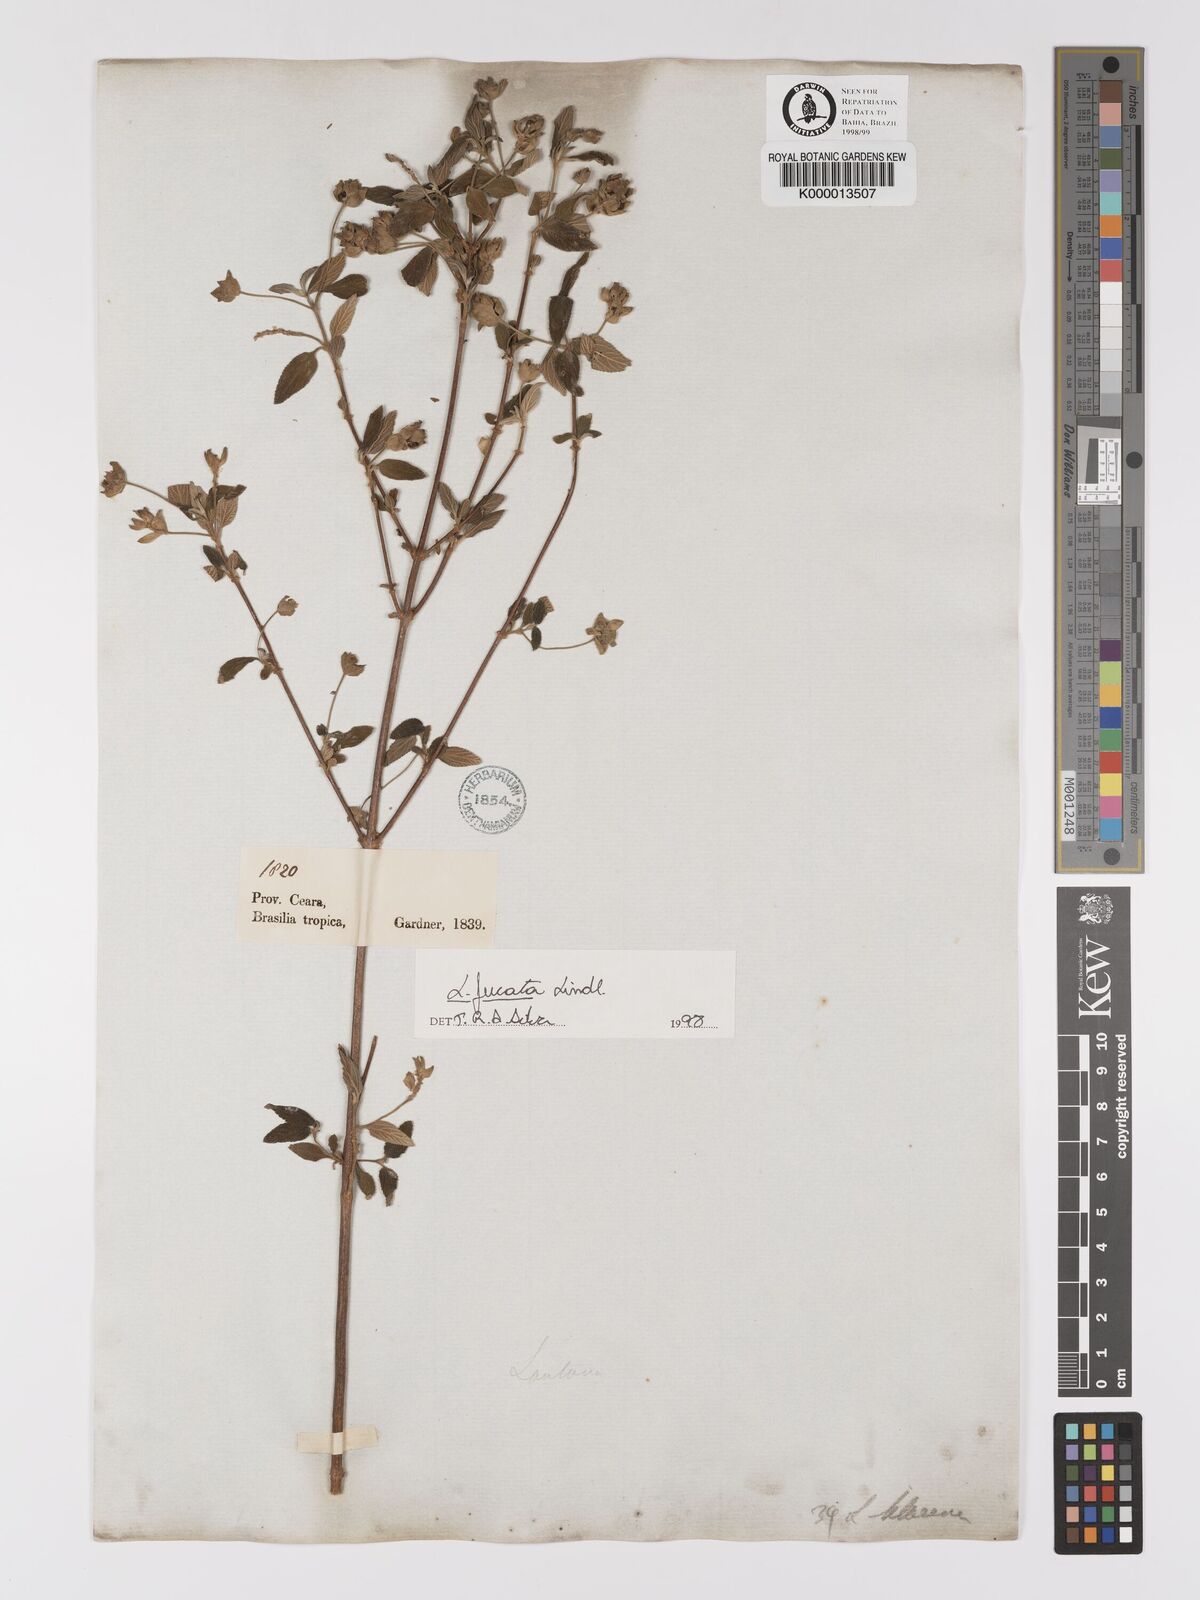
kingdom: Plantae
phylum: Tracheophyta
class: Magnoliopsida
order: Lamiales
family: Verbenaceae
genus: Lantana
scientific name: Lantana fucata
